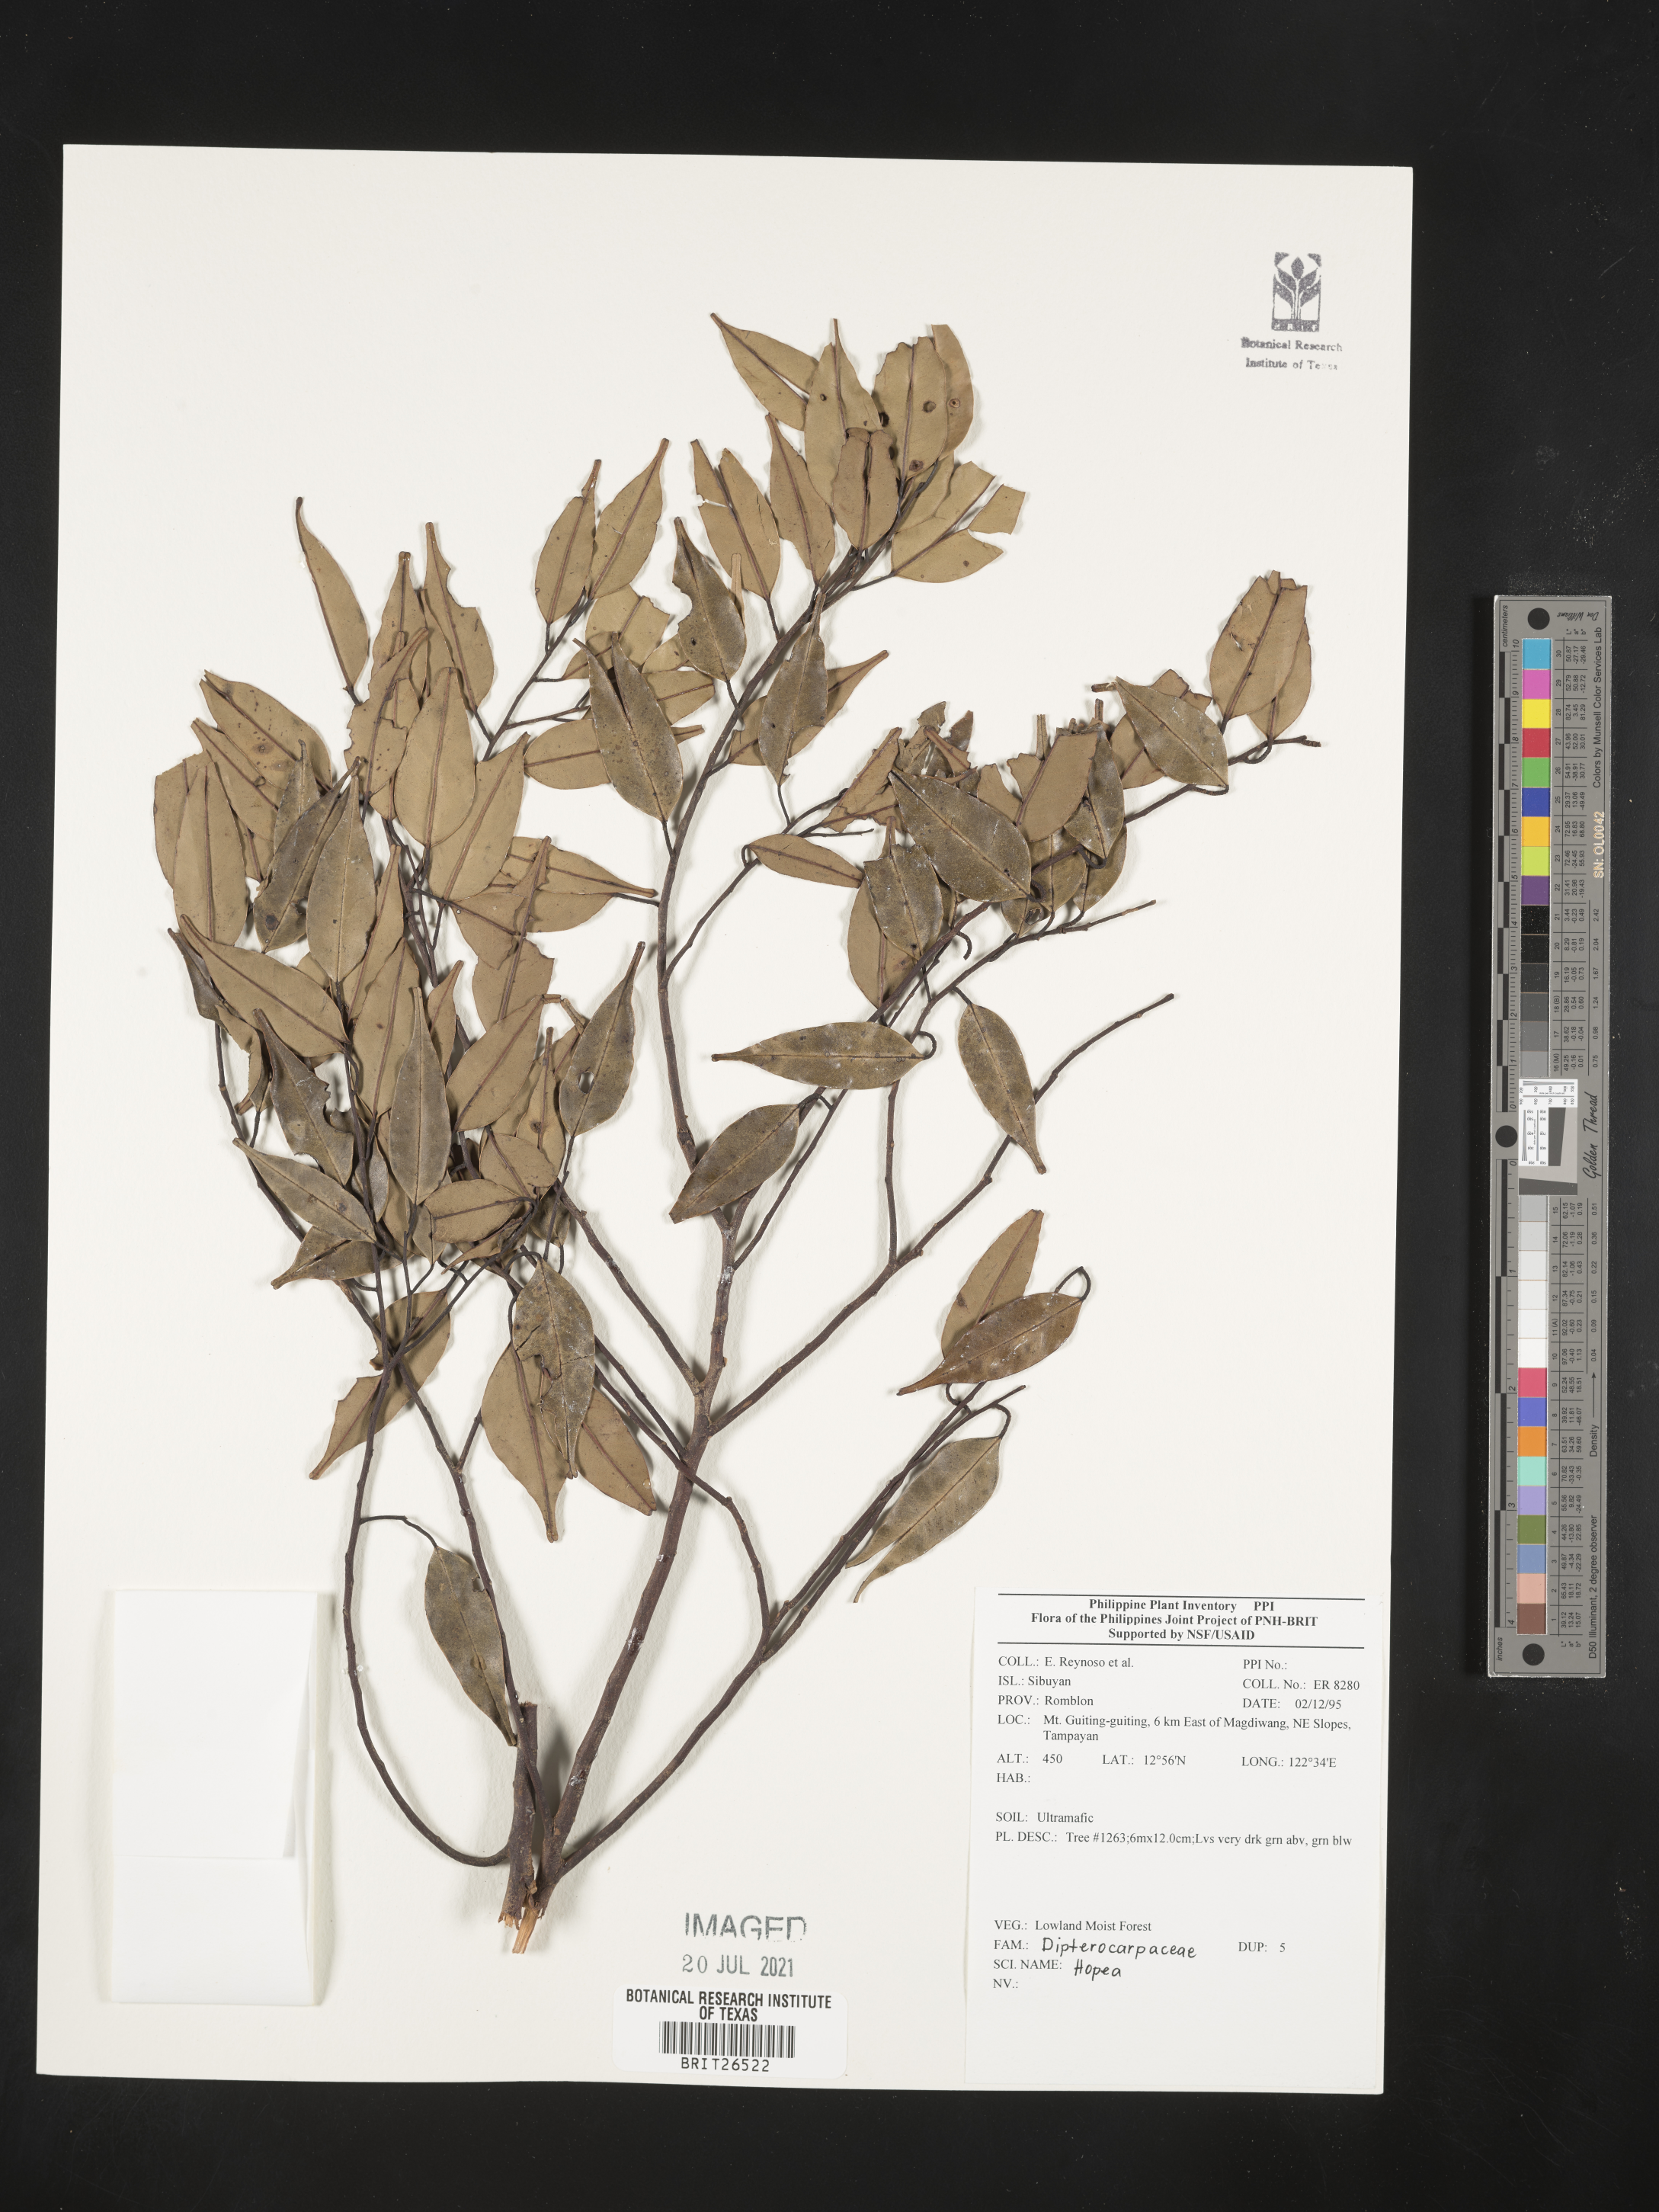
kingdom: Plantae
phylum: Tracheophyta
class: Magnoliopsida
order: Malvales
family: Dipterocarpaceae
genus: Hopea
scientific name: Hopea
